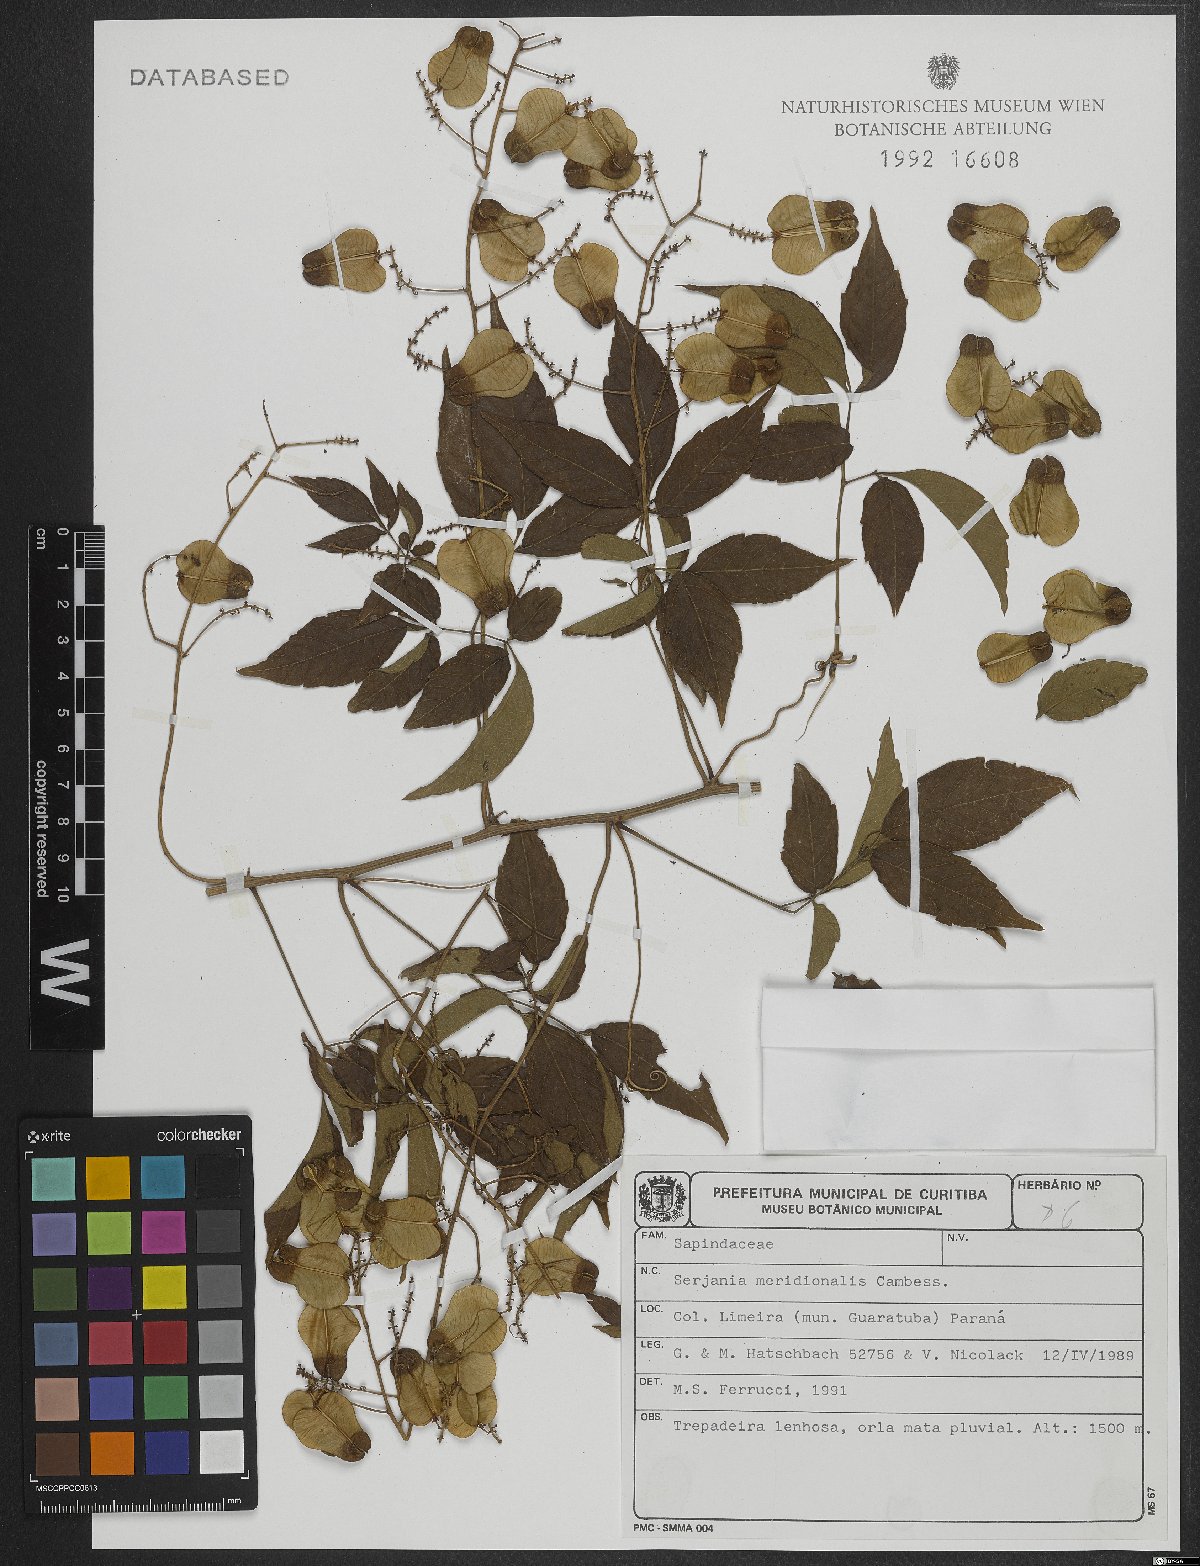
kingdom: Plantae
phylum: Tracheophyta
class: Magnoliopsida
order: Sapindales
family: Sapindaceae
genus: Serjania
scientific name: Serjania meridionalis
